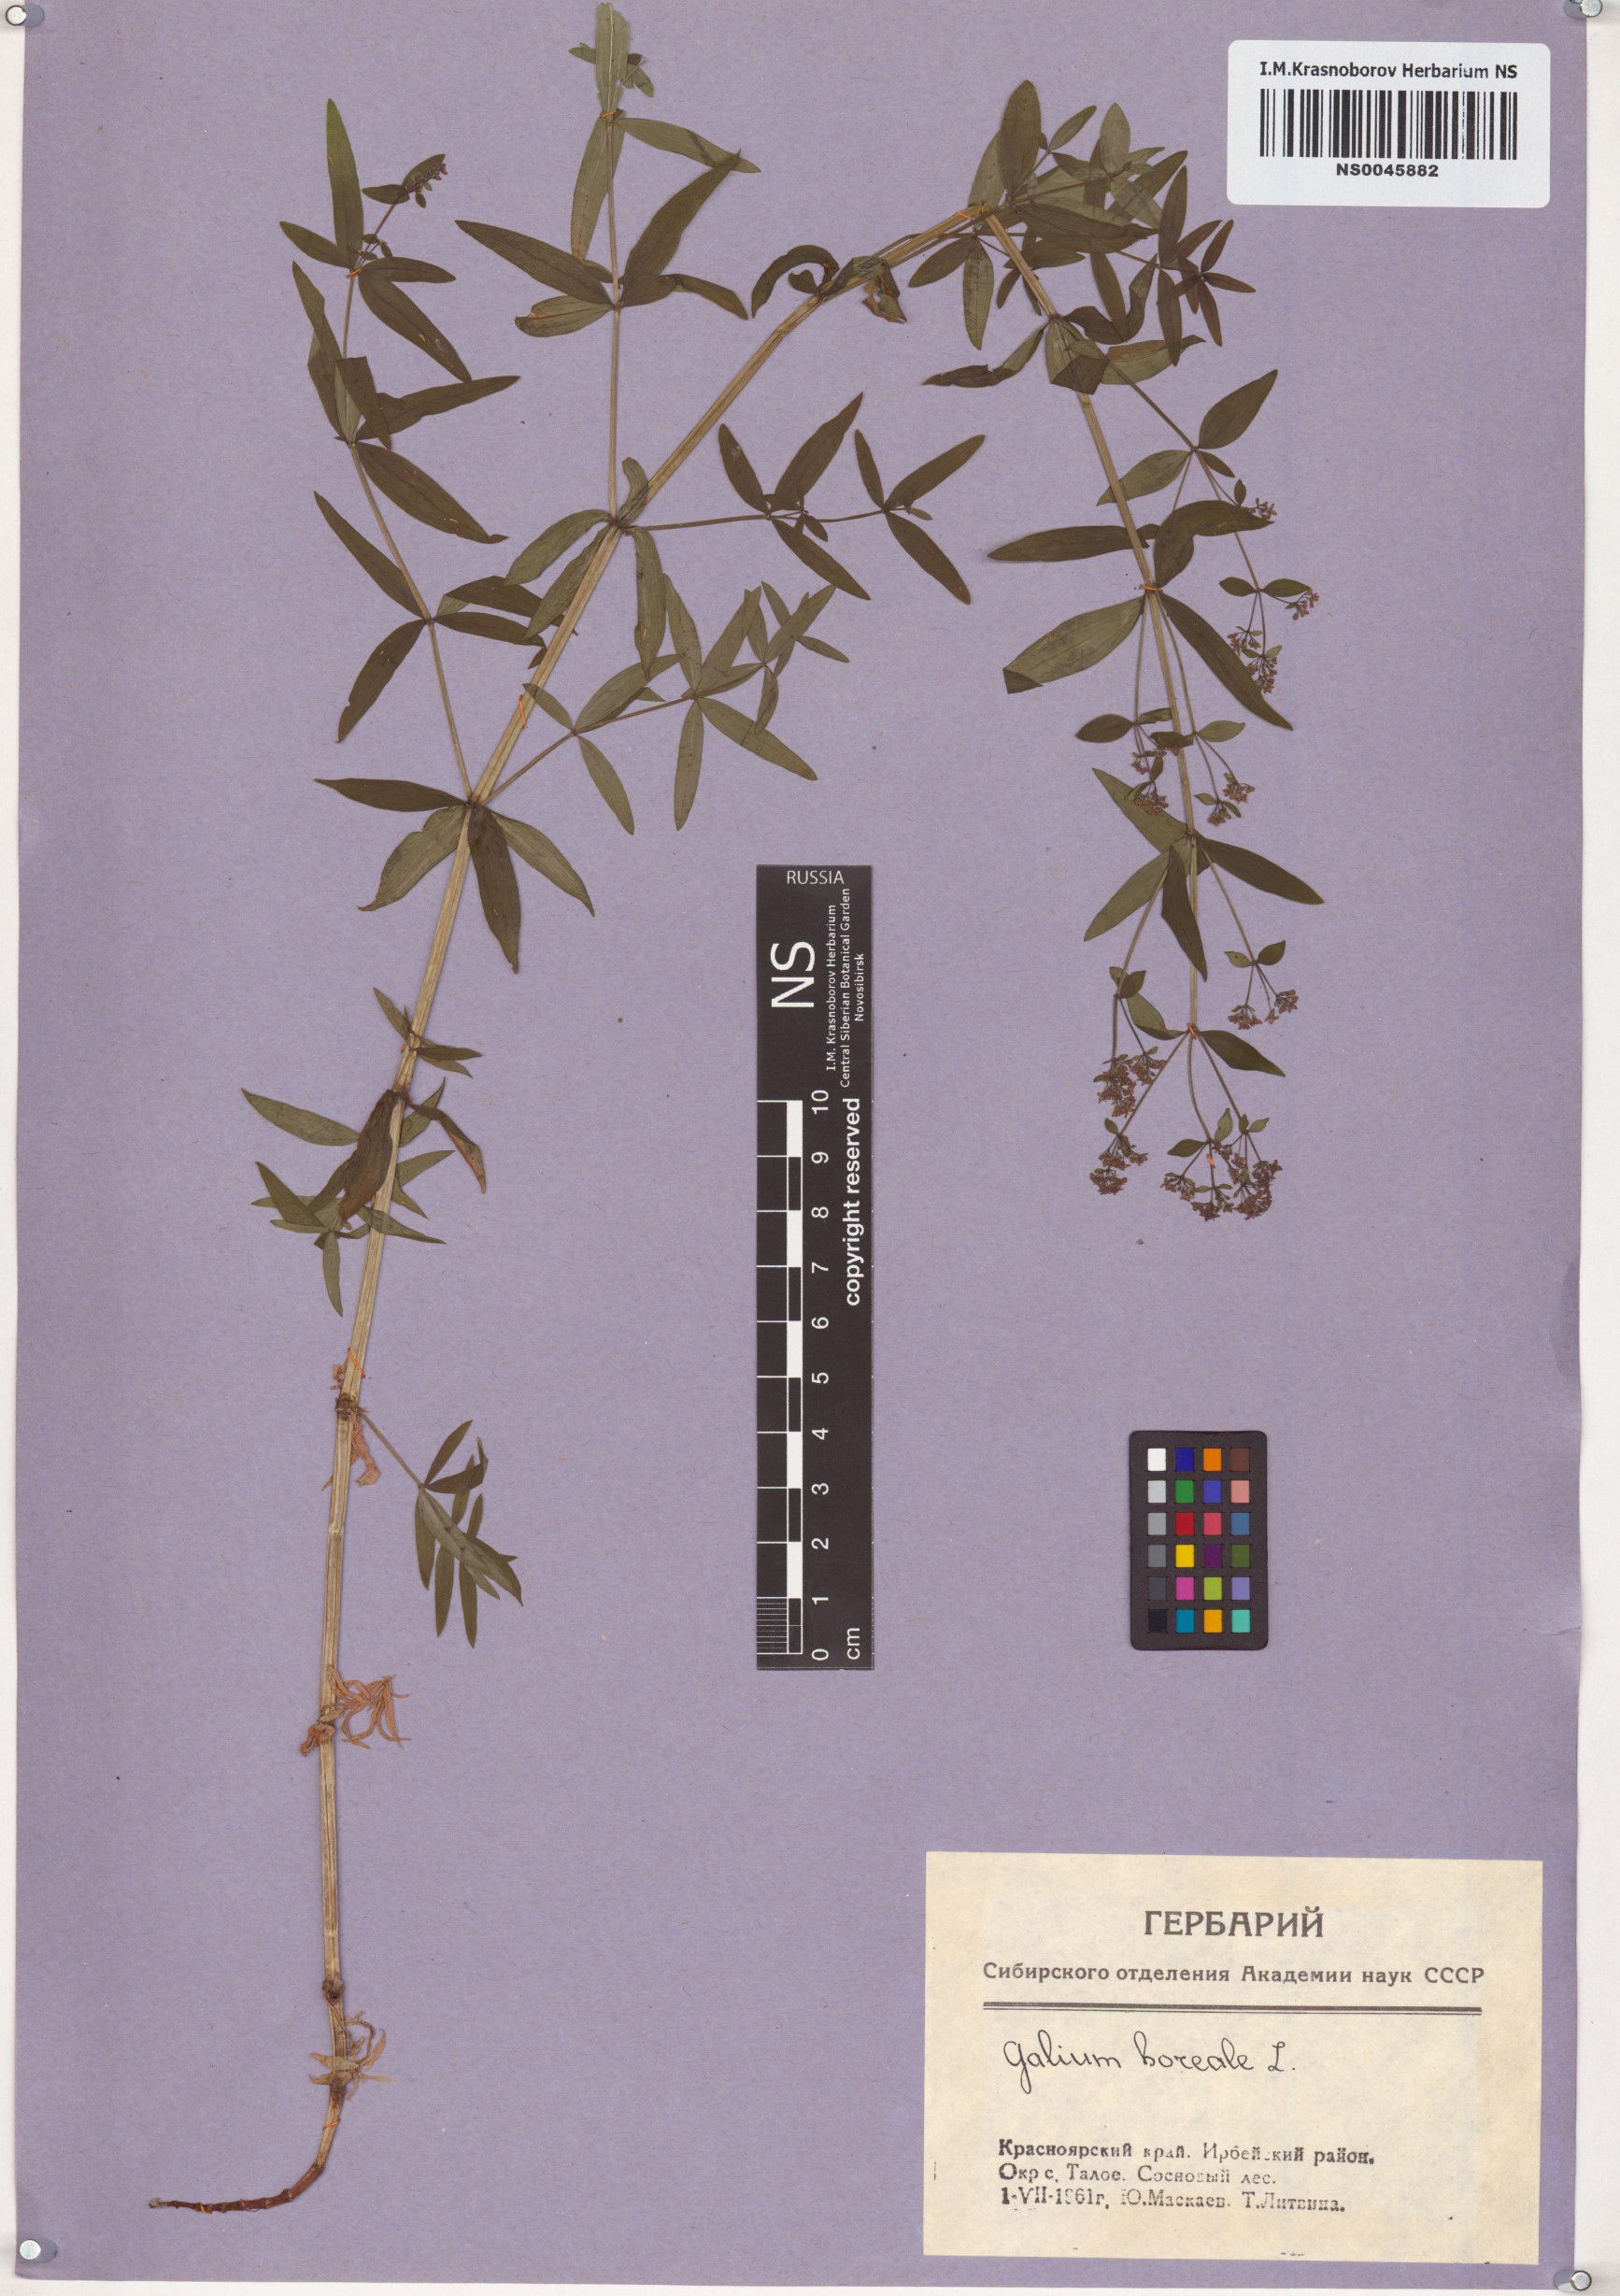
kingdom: Plantae
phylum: Tracheophyta
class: Magnoliopsida
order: Gentianales
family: Rubiaceae
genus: Galium
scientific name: Galium boreale
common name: Northern bedstraw
